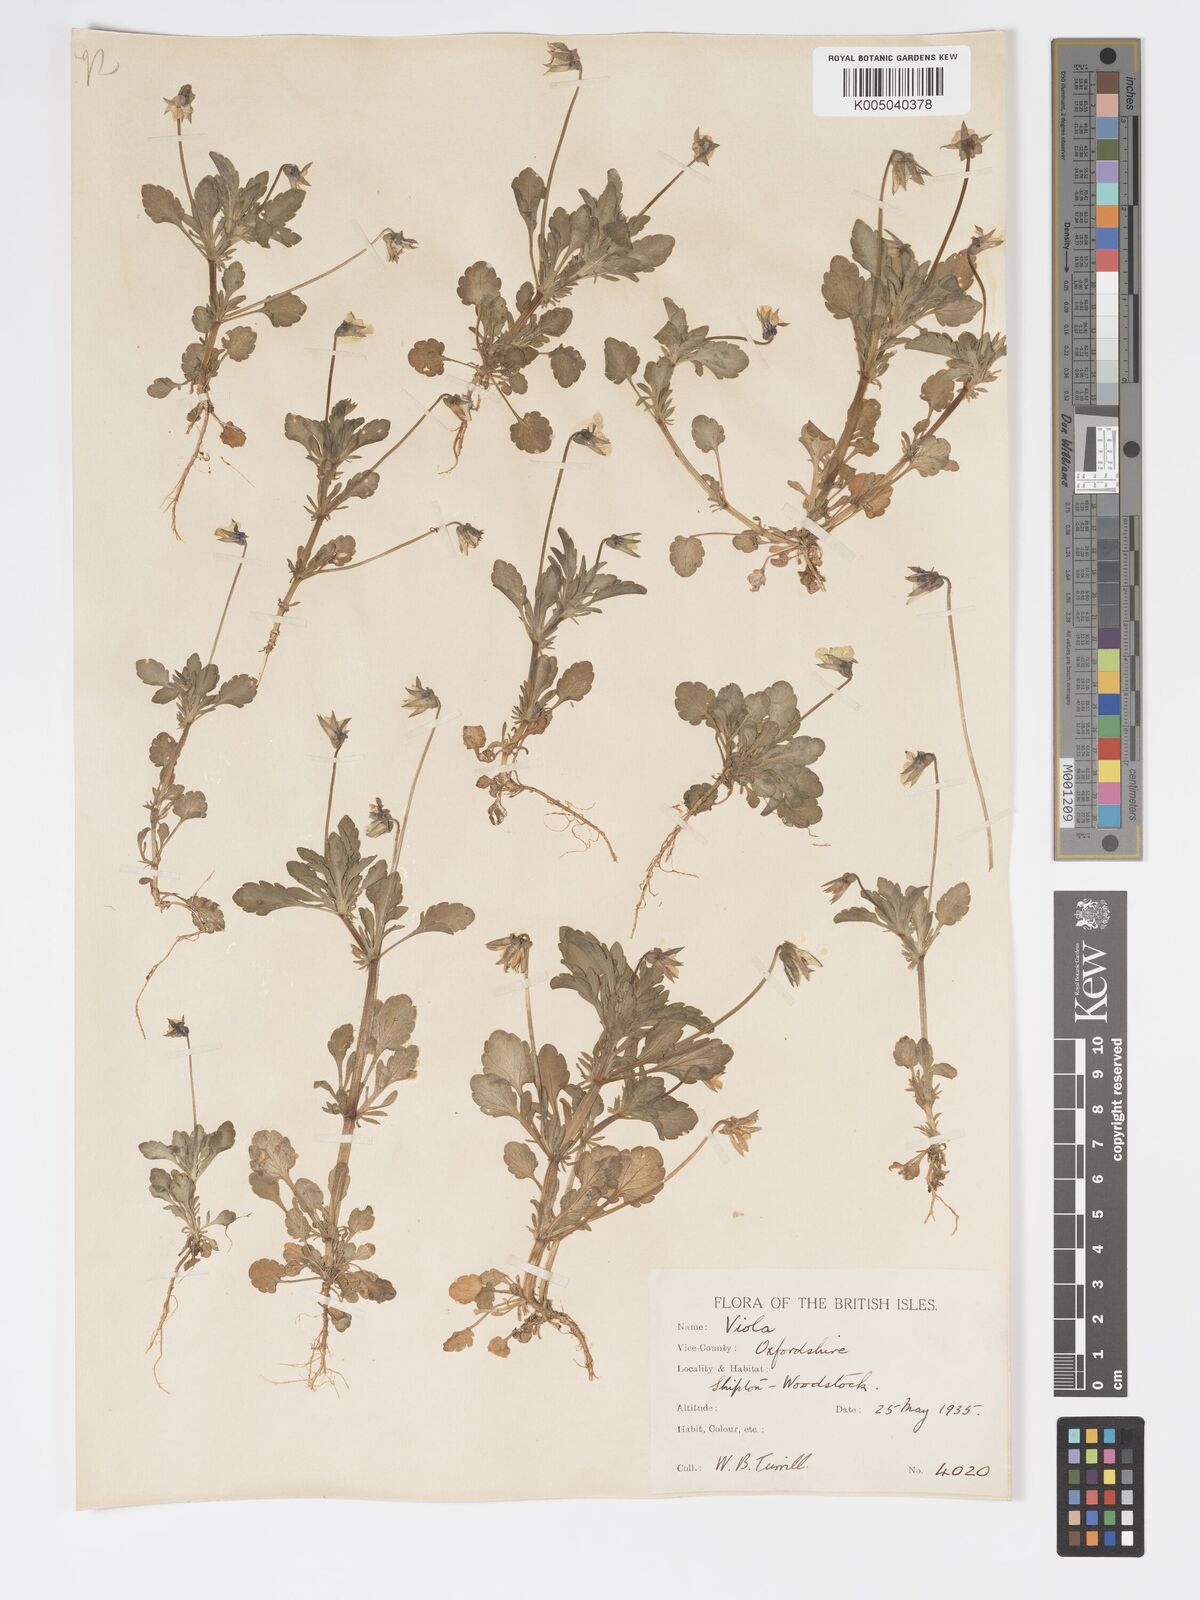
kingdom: Plantae
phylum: Tracheophyta
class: Magnoliopsida
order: Malpighiales
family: Violaceae
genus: Viola
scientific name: Viola arvensis
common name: Field pansy
